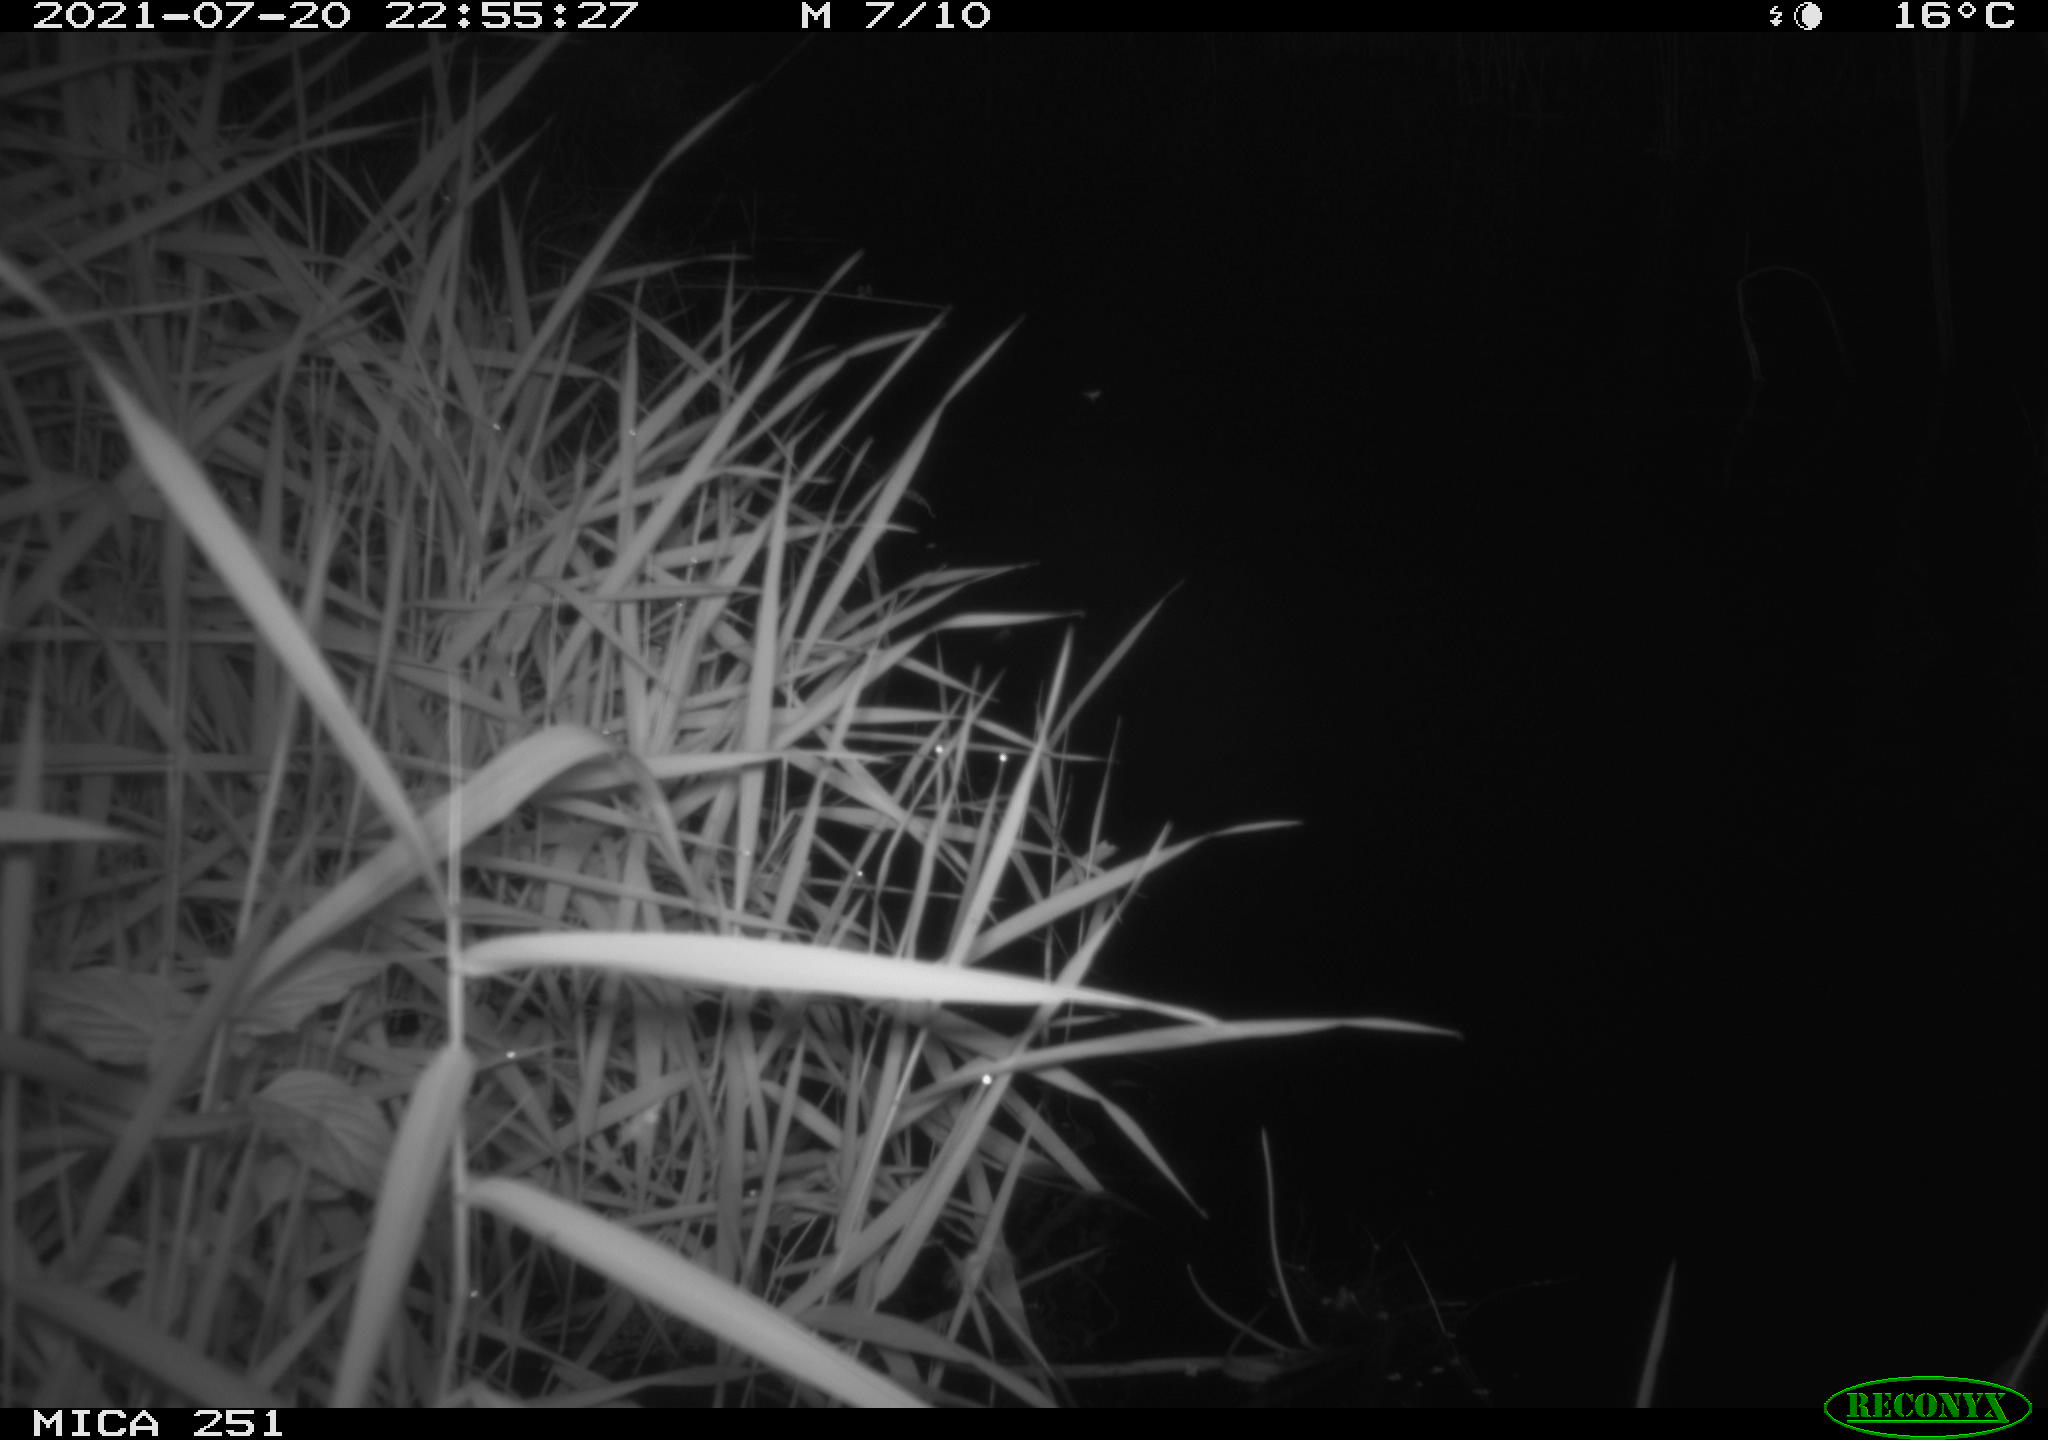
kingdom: Animalia
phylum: Chordata
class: Aves
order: Anseriformes
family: Anatidae
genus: Anas
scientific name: Anas platyrhynchos
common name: Mallard
